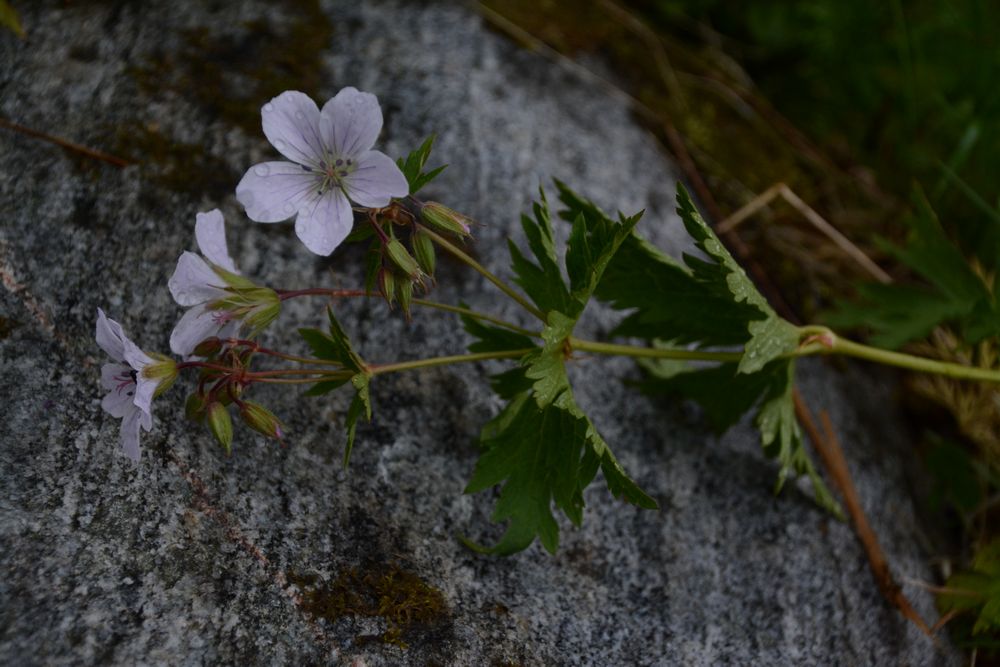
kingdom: Plantae
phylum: Tracheophyta
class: Magnoliopsida
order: Geraniales
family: Geraniaceae
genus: Geranium
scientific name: Geranium sylvaticum
